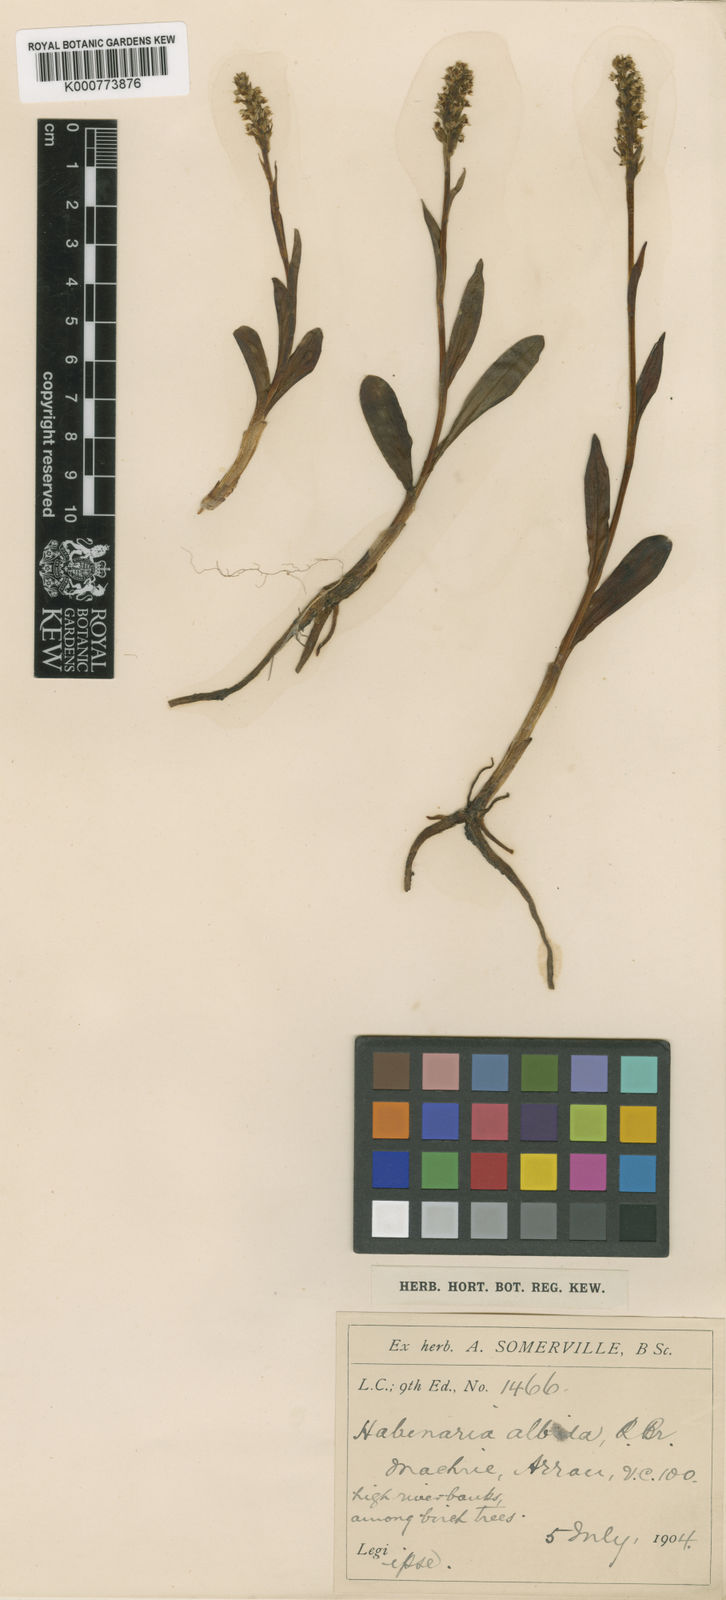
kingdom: Plantae
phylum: Tracheophyta
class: Liliopsida
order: Asparagales
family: Orchidaceae
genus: Pseudorchis
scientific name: Pseudorchis
